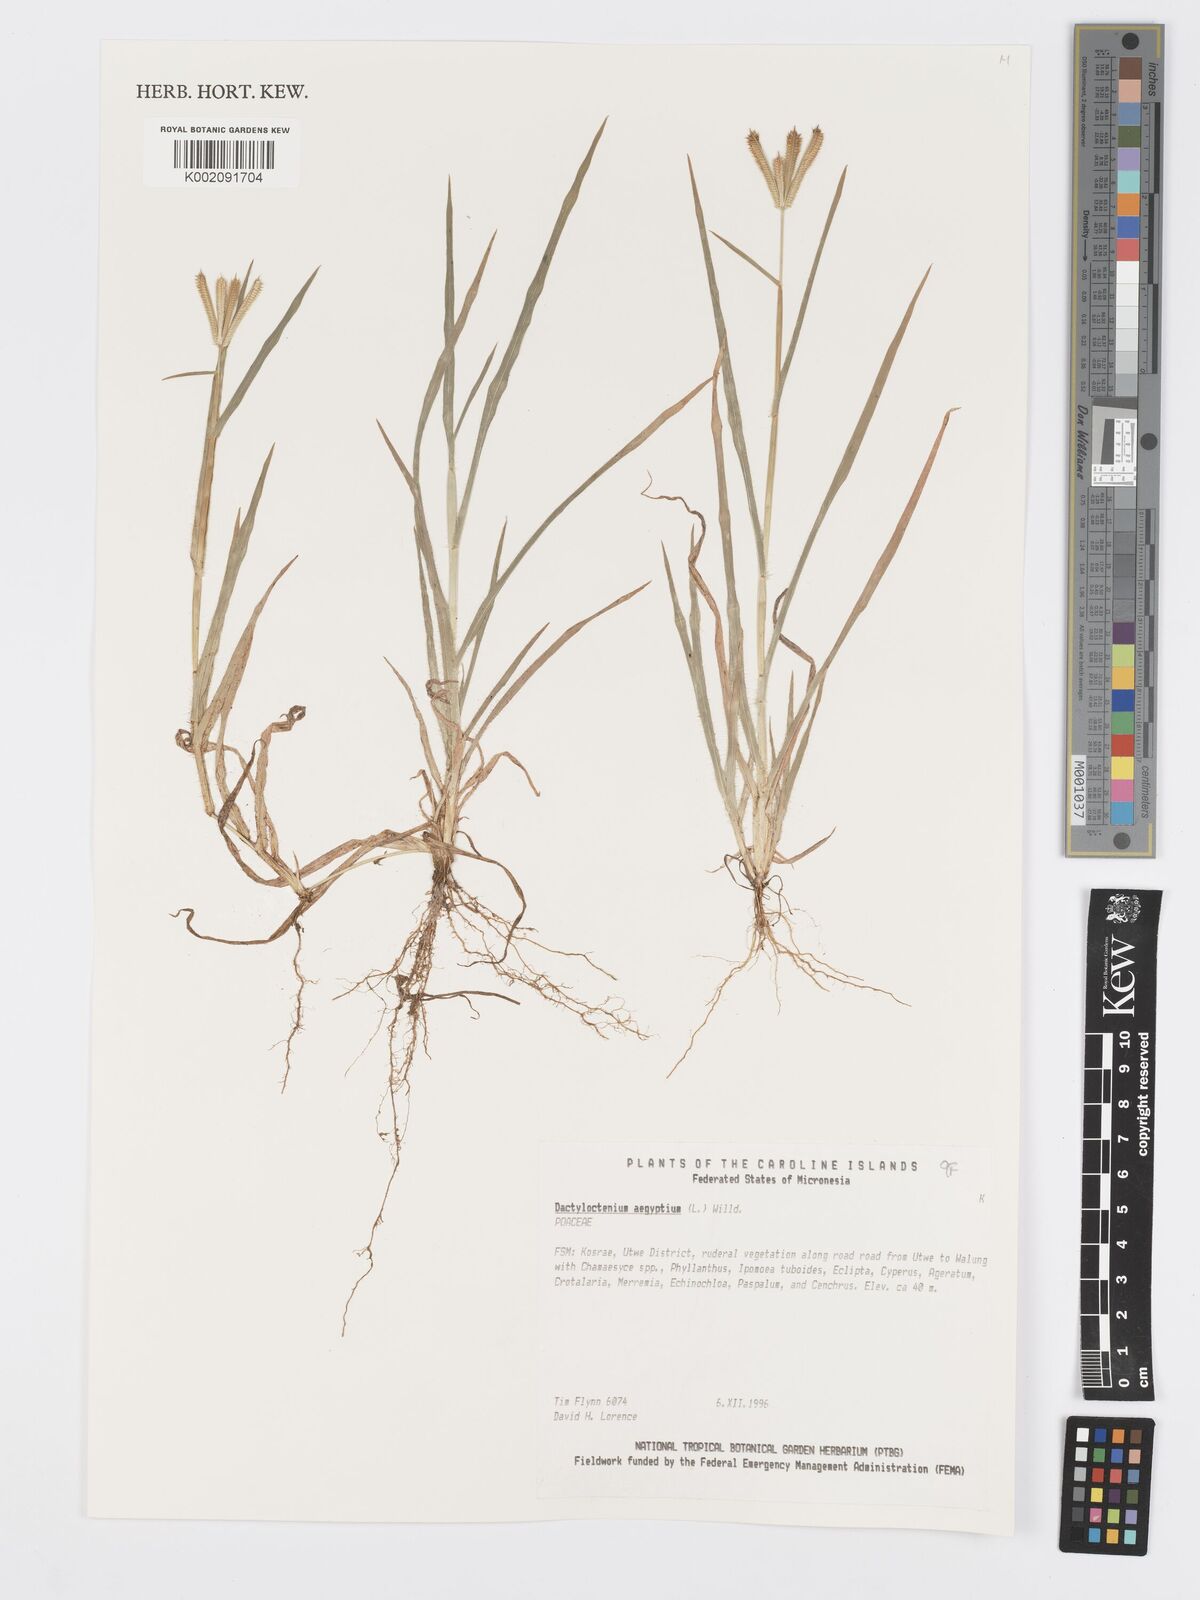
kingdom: Plantae
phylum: Tracheophyta
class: Liliopsida
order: Poales
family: Poaceae
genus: Dactyloctenium
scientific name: Dactyloctenium aegyptium
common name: Egyptian grass
